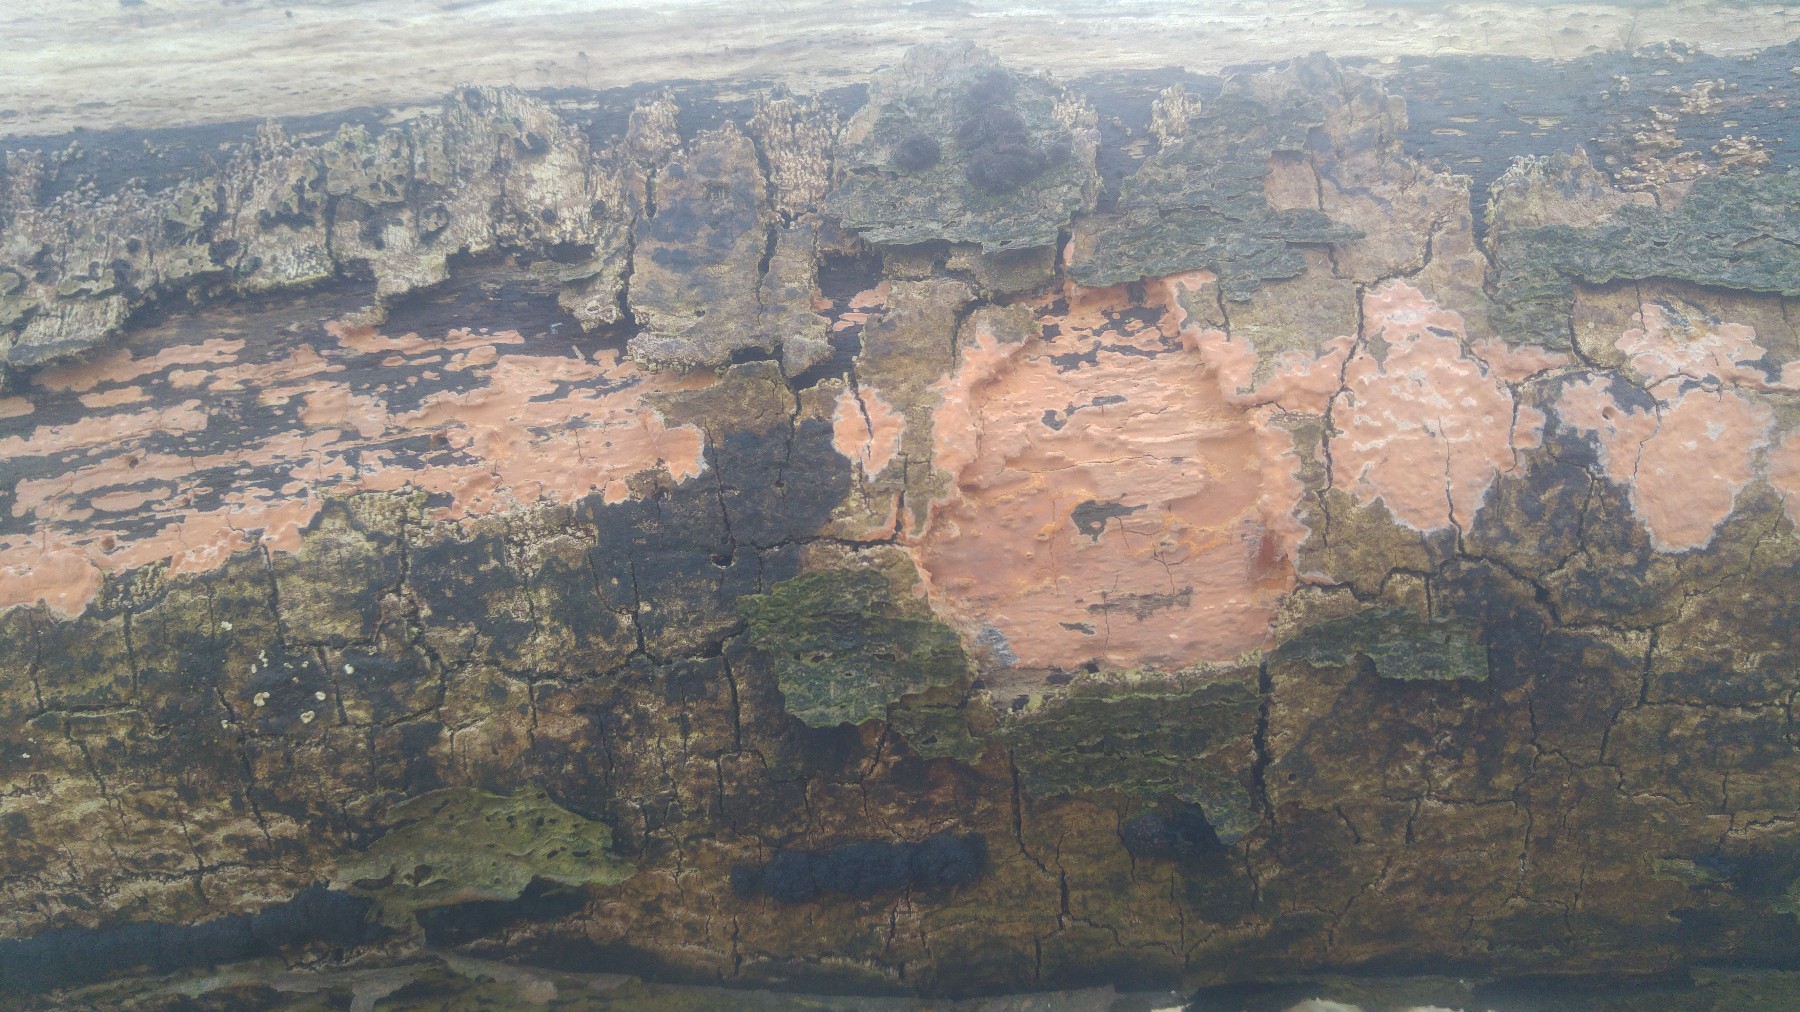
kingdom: Fungi
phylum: Basidiomycota
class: Agaricomycetes
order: Russulales
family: Peniophoraceae
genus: Peniophora
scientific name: Peniophora incarnata
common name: laksefarvet voksskind
